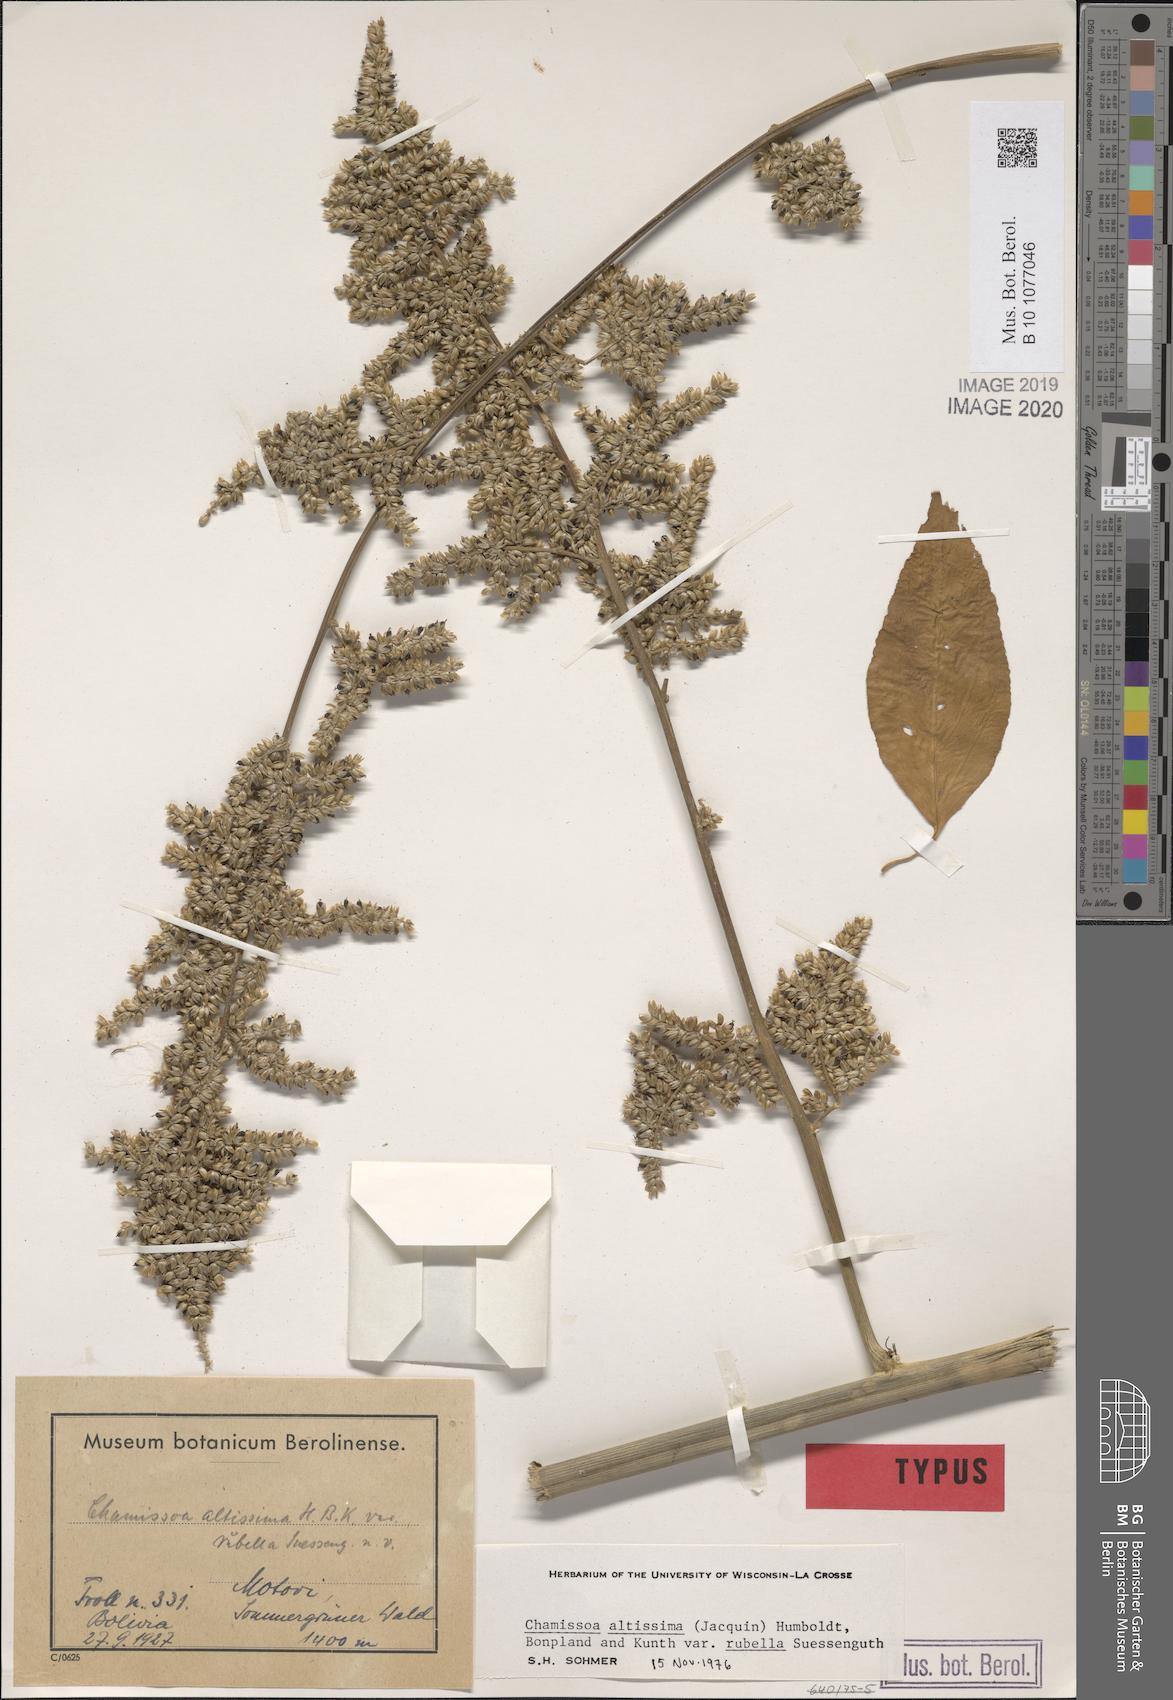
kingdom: Plantae
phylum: Tracheophyta
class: Magnoliopsida
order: Caryophyllales
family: Amaranthaceae
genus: Chamissoa
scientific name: Chamissoa altissima
